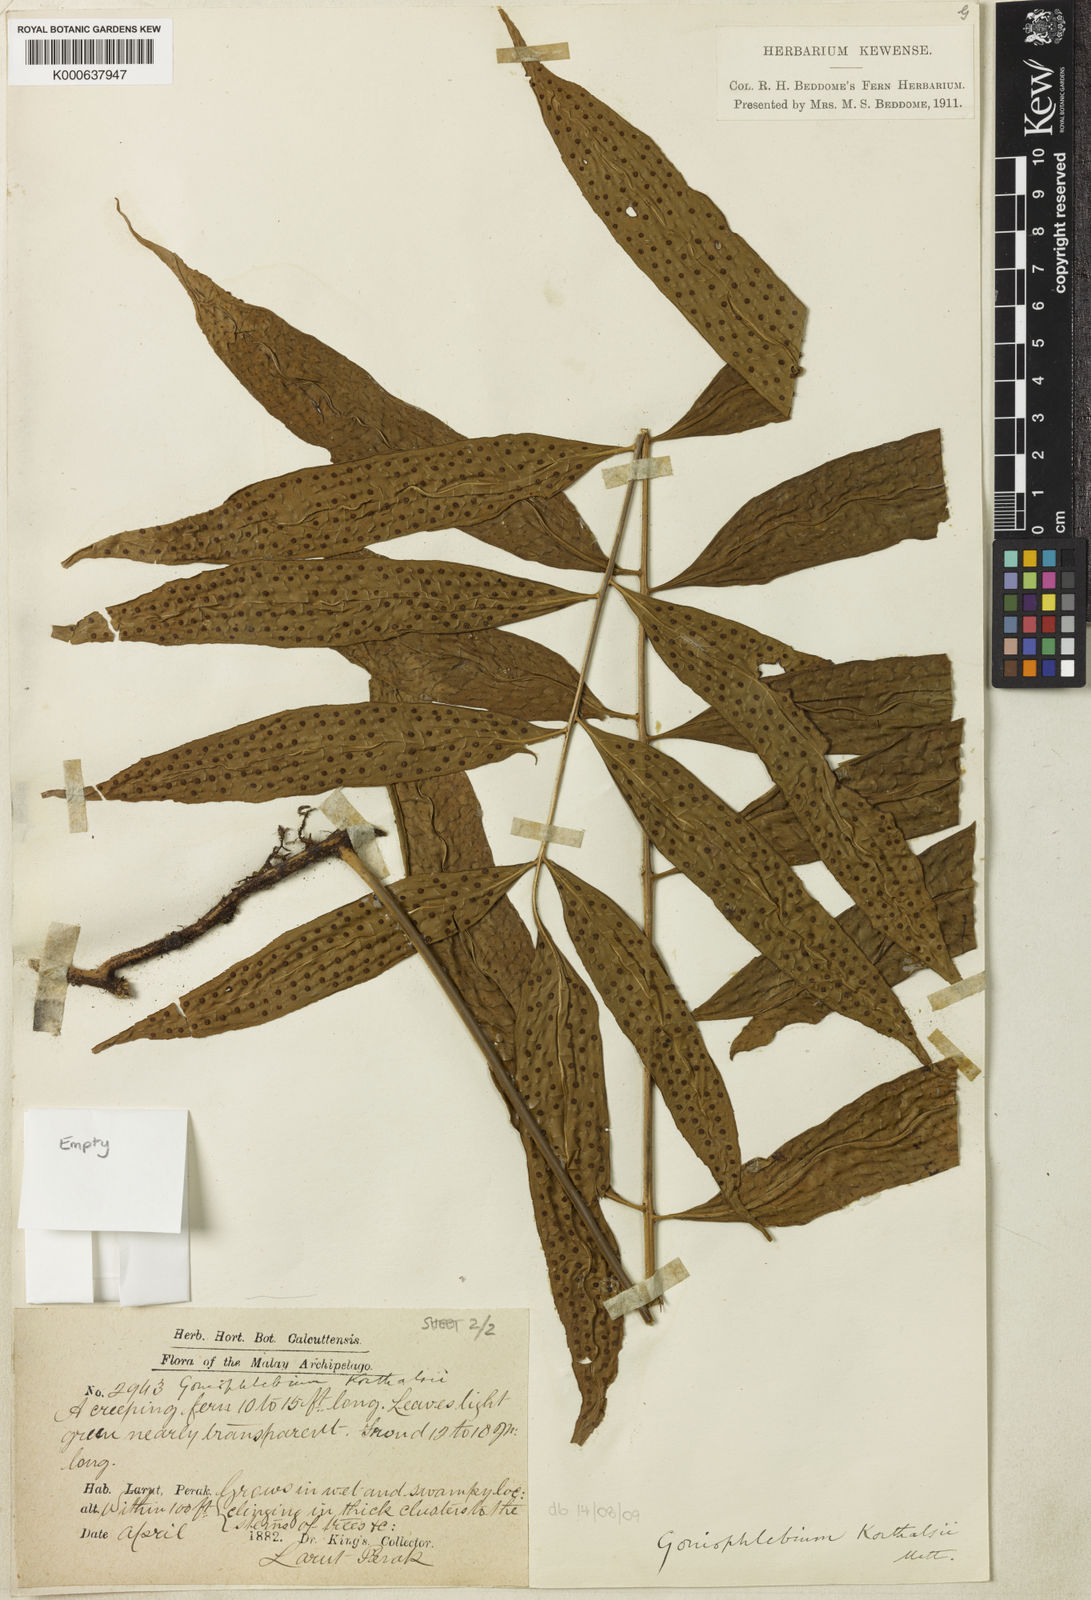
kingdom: Plantae
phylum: Tracheophyta
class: Polypodiopsida
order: Polypodiales
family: Polypodiaceae
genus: Goniophlebium
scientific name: Goniophlebium korthalsii
